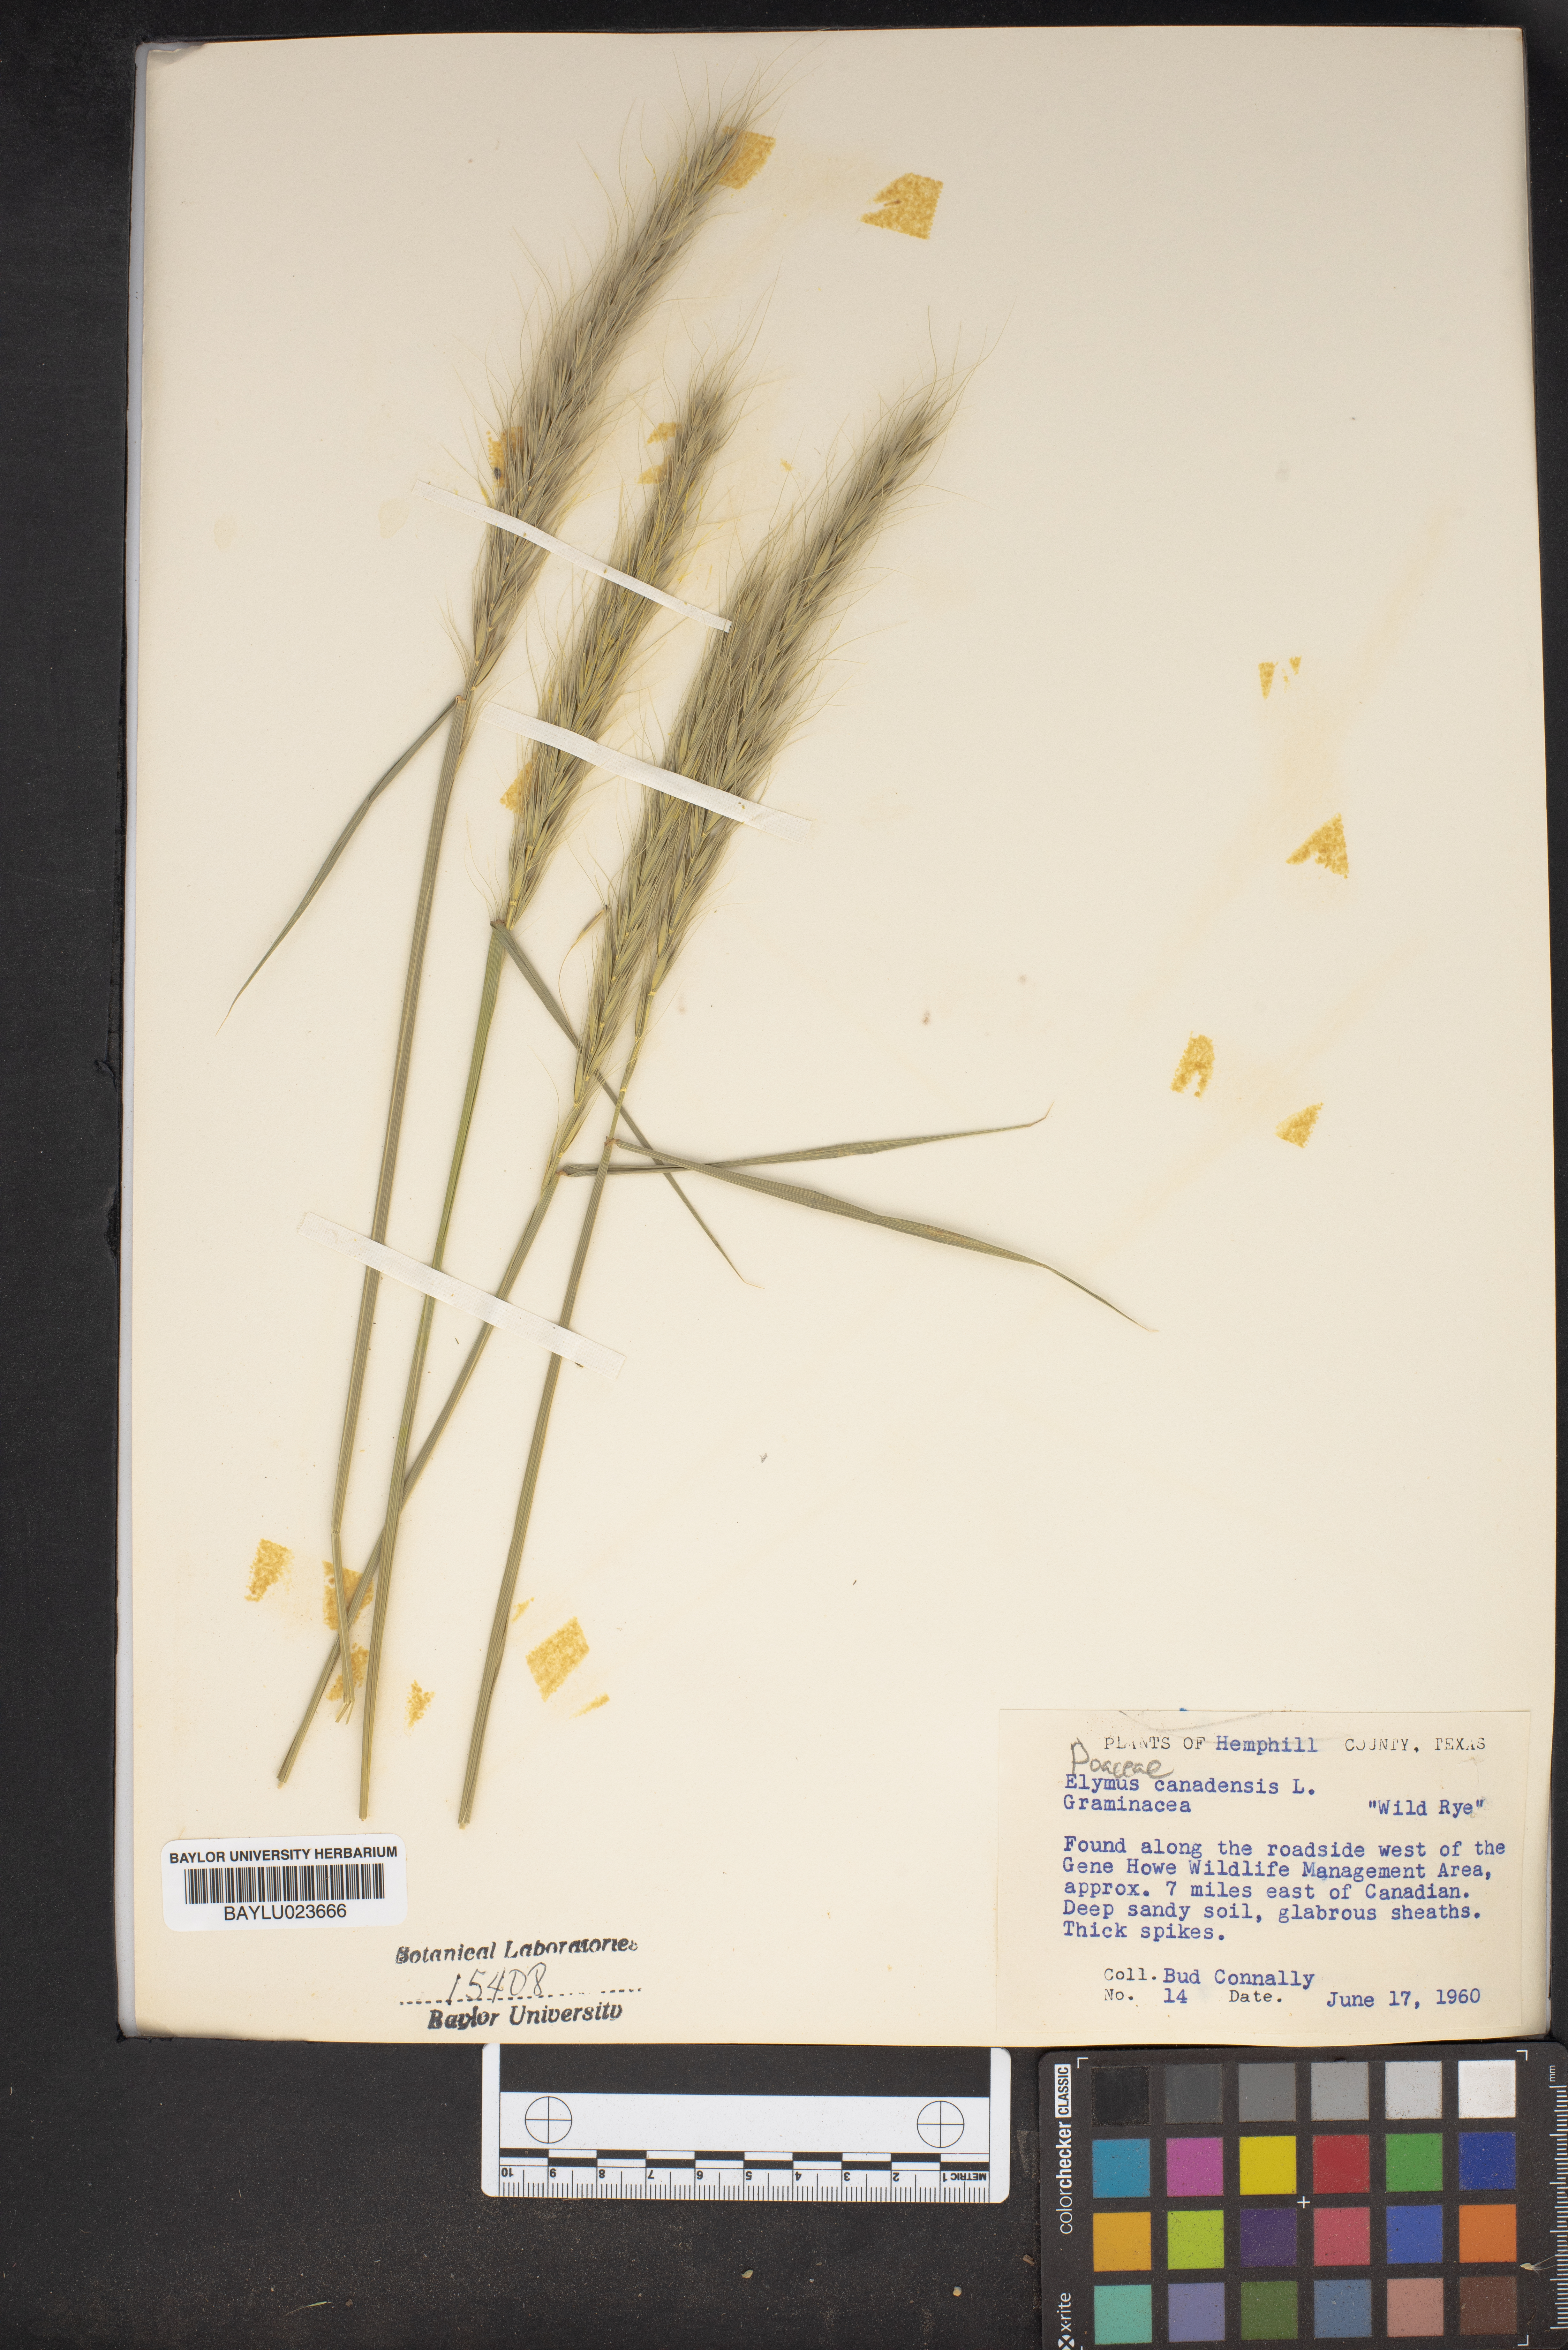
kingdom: Plantae
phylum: Tracheophyta
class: Liliopsida
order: Poales
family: Poaceae
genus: Elymus
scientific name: Elymus canadensis
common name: Canada wild rye
